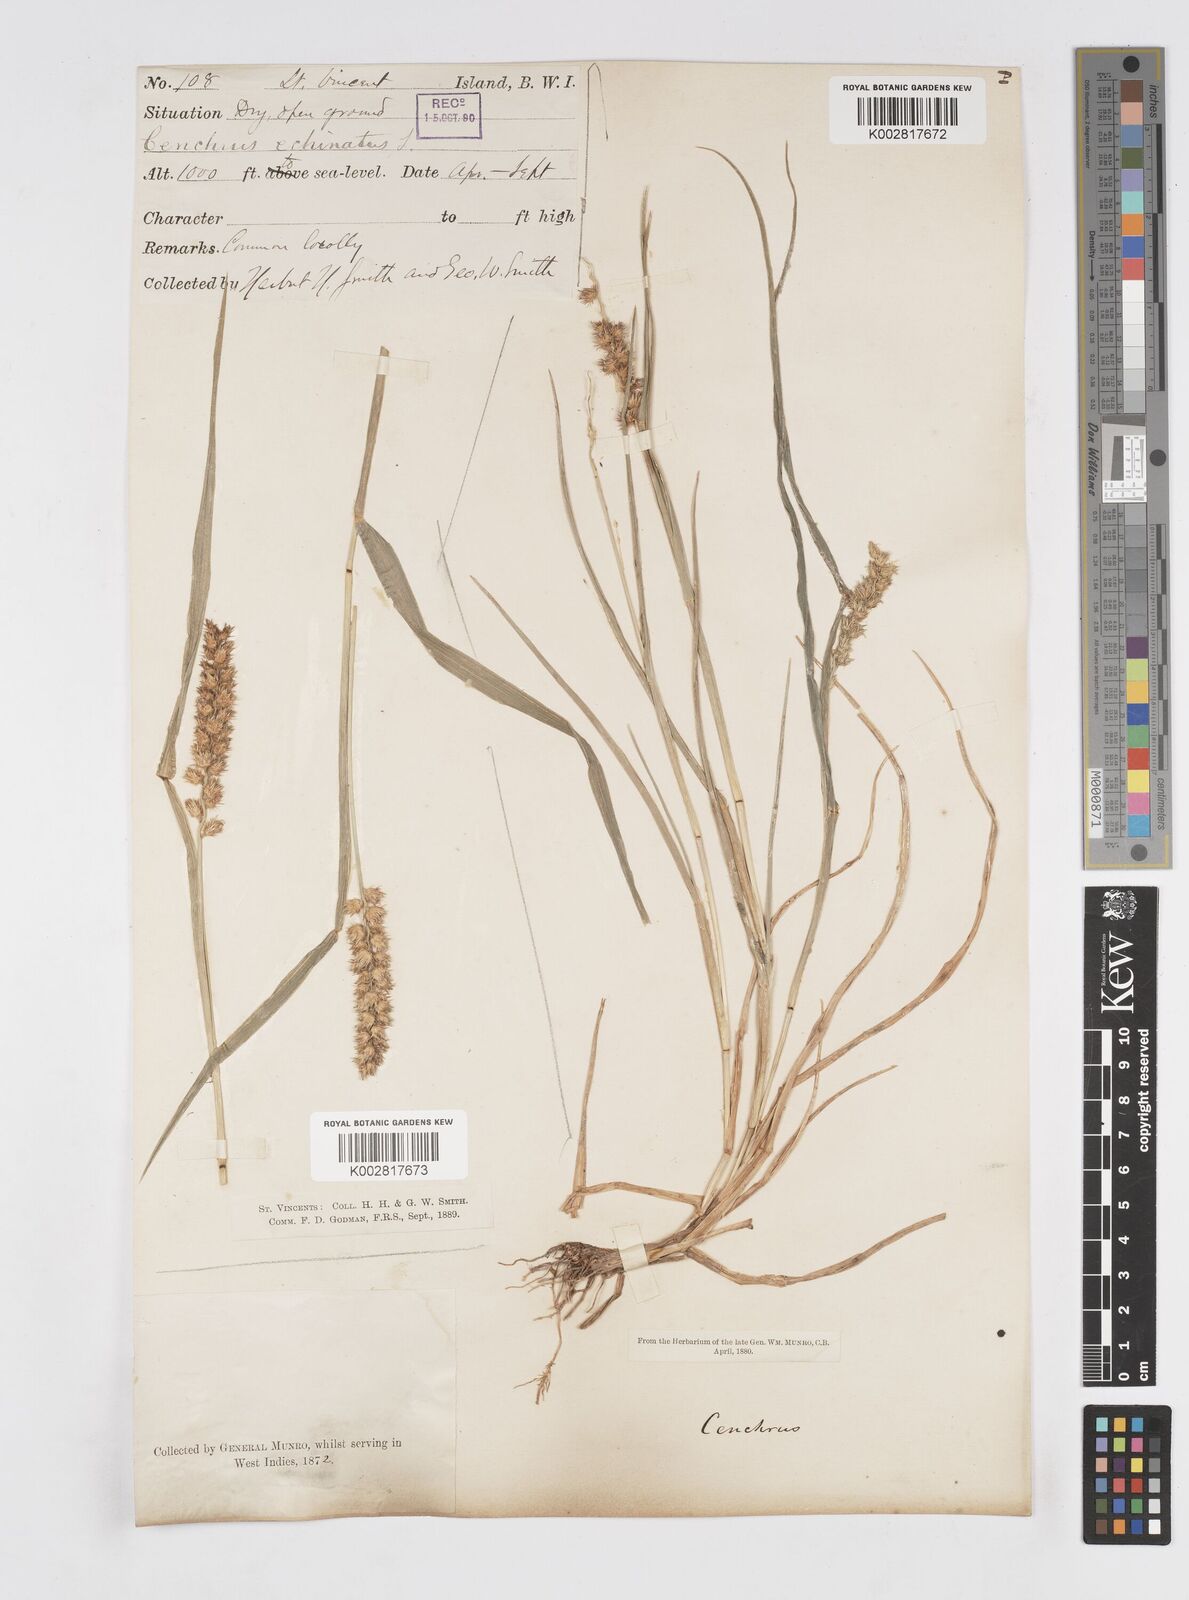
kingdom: Plantae
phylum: Tracheophyta
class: Liliopsida
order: Poales
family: Poaceae
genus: Cenchrus
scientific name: Cenchrus
